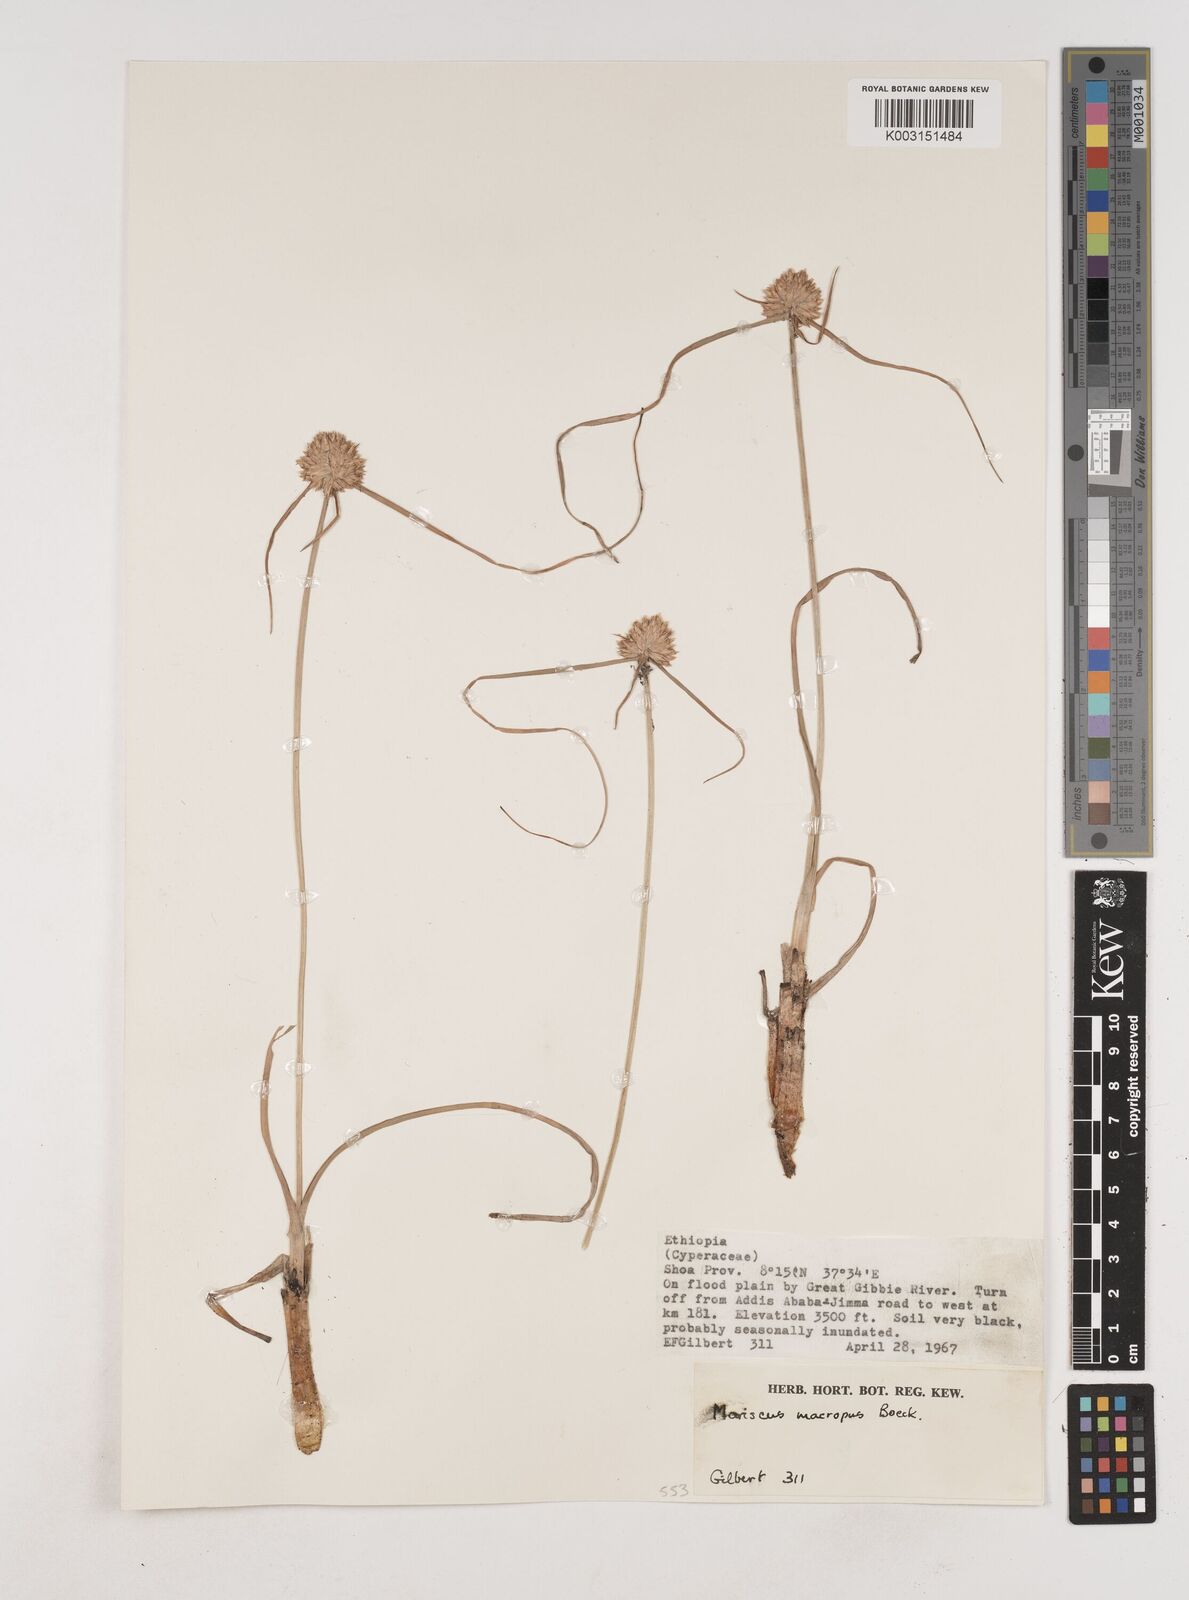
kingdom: Plantae
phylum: Tracheophyta
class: Liliopsida
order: Poales
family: Cyperaceae
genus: Cyperus
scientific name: Cyperus mollipes
